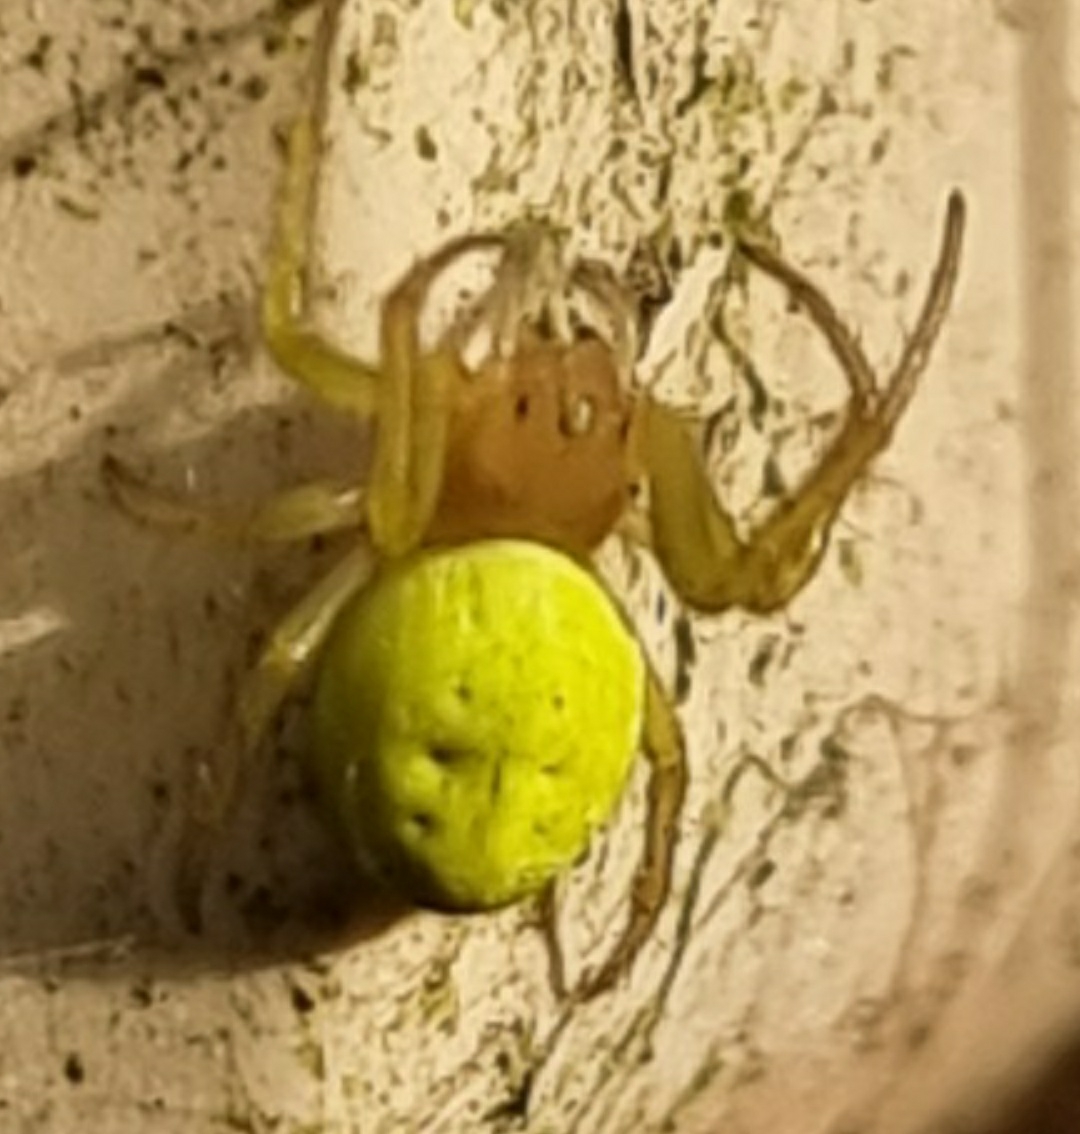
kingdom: Animalia
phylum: Arthropoda
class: Arachnida
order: Araneae
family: Araneidae
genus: Araniella
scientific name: Araniella
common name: Agurkeedderkopslægten
